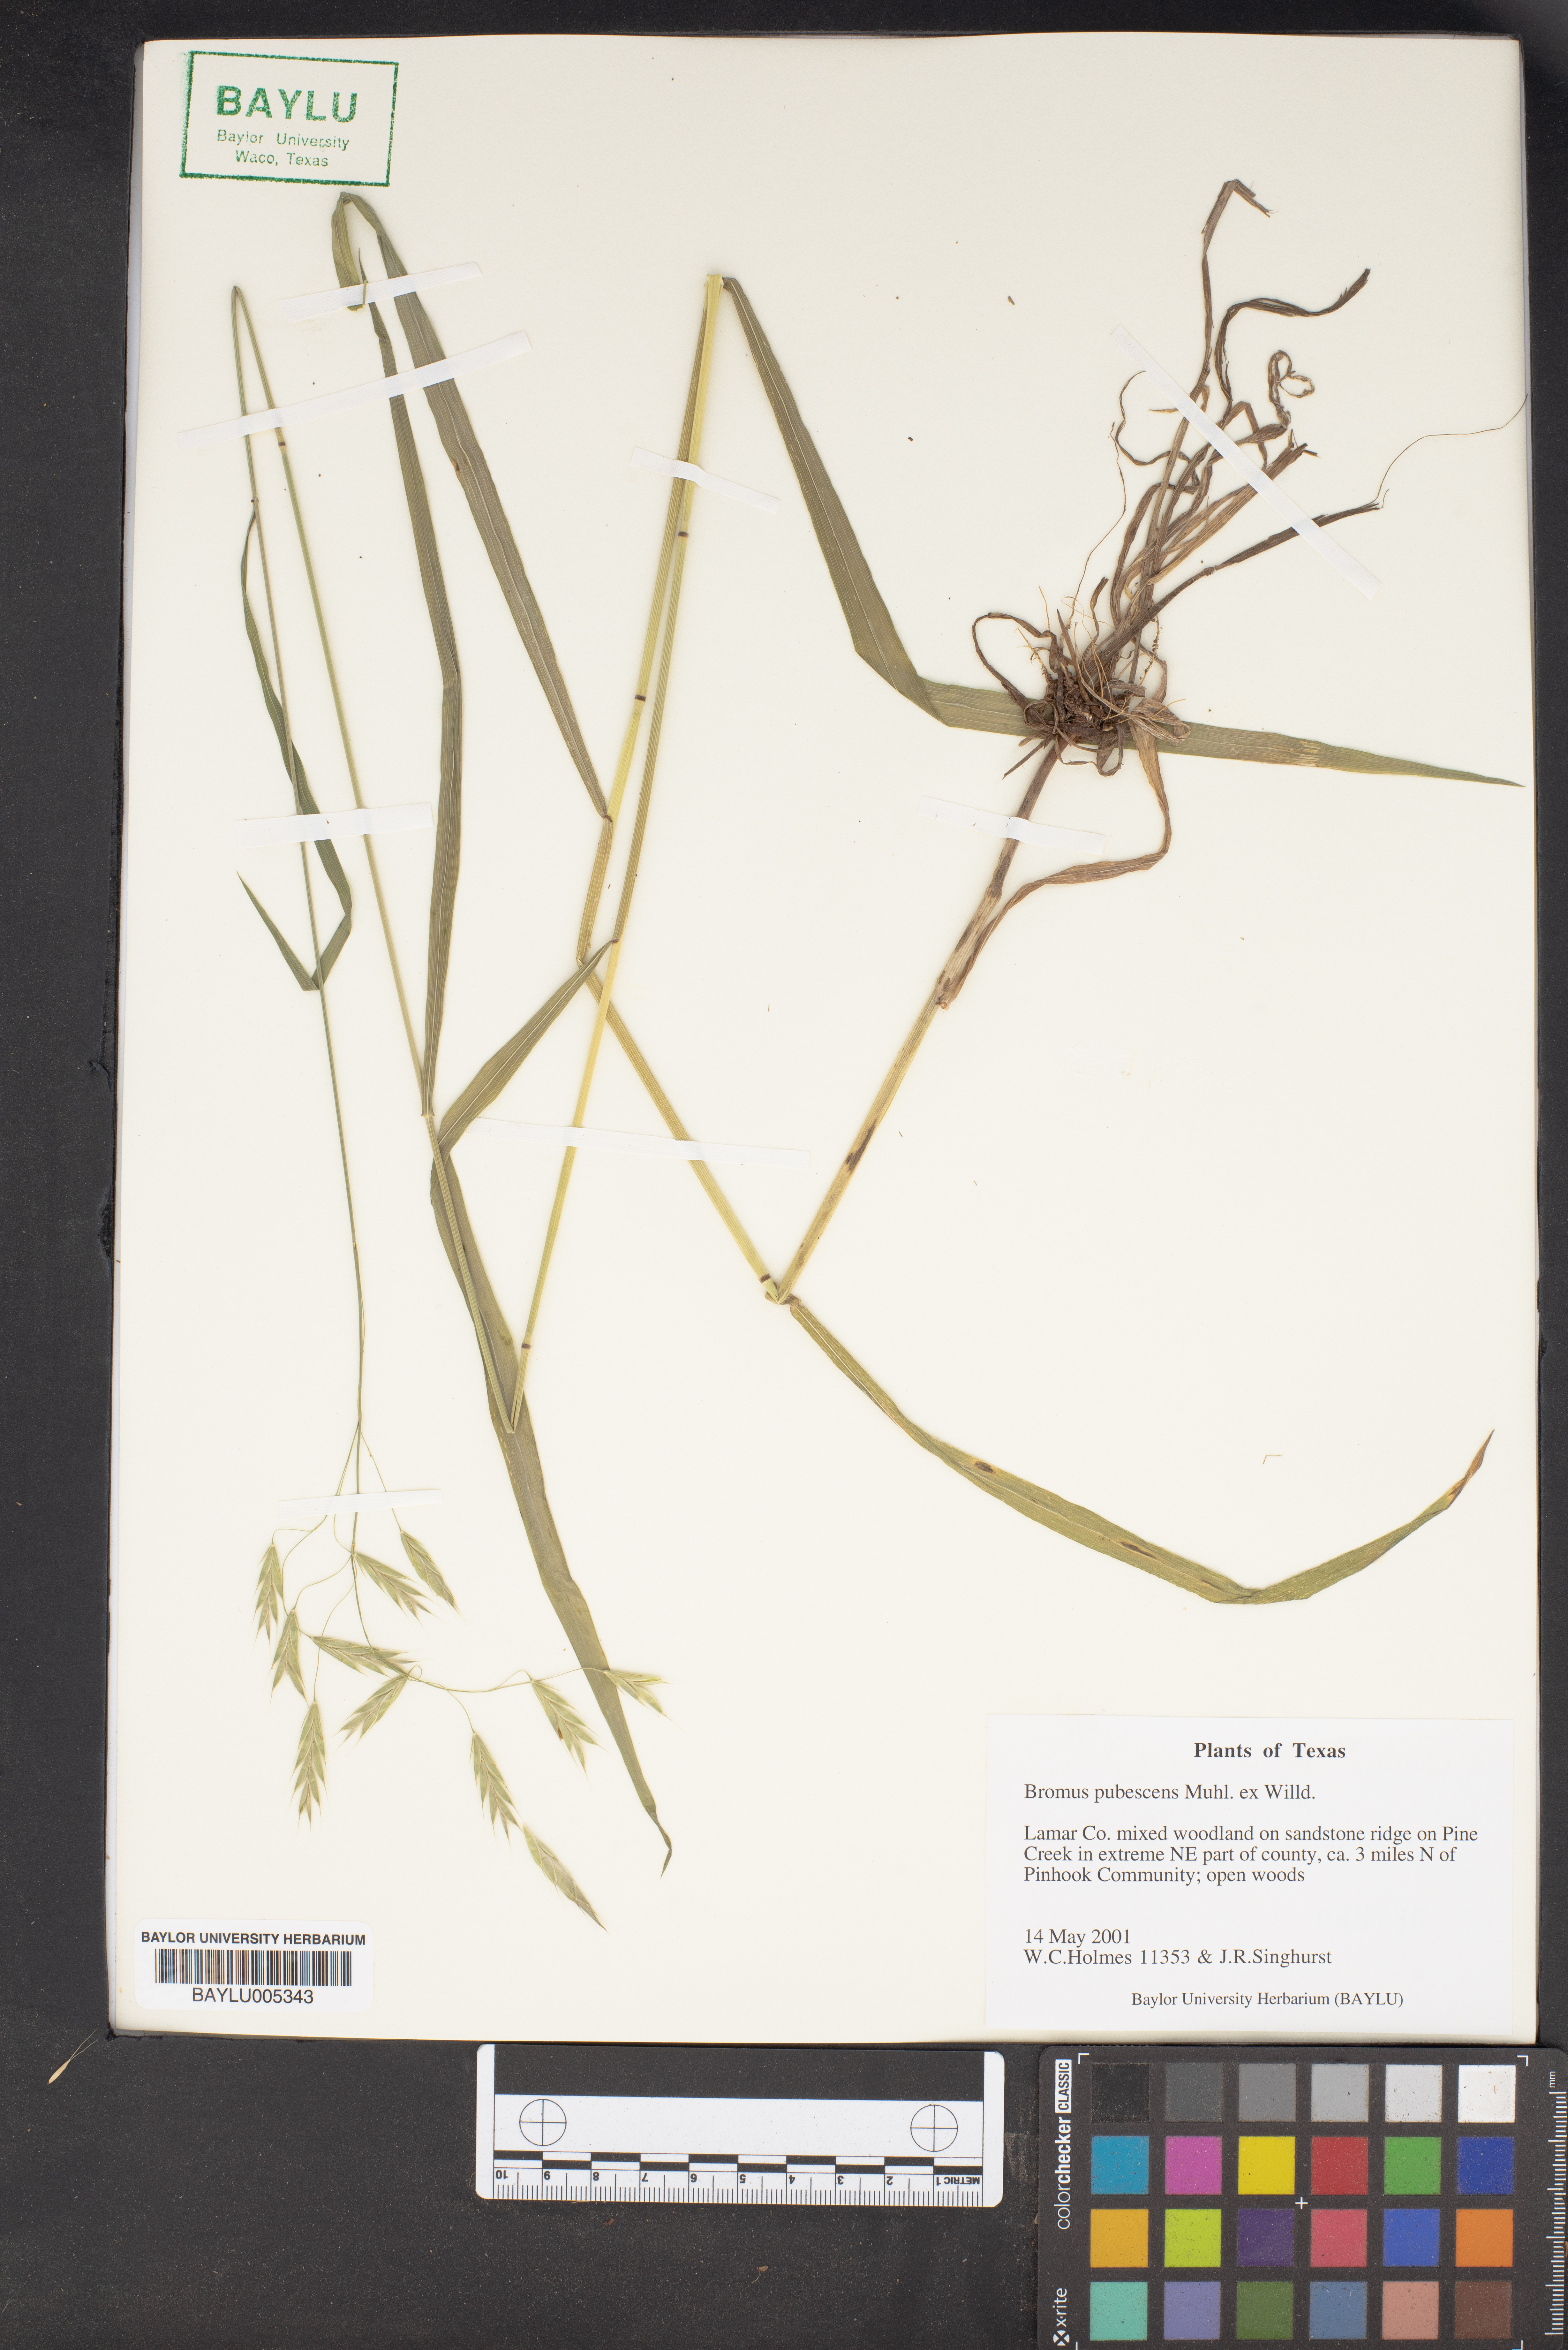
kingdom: Plantae
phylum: Tracheophyta
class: Liliopsida
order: Poales
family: Poaceae
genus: Bromus
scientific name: Bromus pubescens
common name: Hairy wood brome grass
